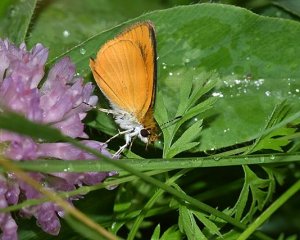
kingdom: Animalia
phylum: Arthropoda
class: Insecta
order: Lepidoptera
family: Hesperiidae
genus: Ancyloxypha
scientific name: Ancyloxypha numitor
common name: Least Skipper
